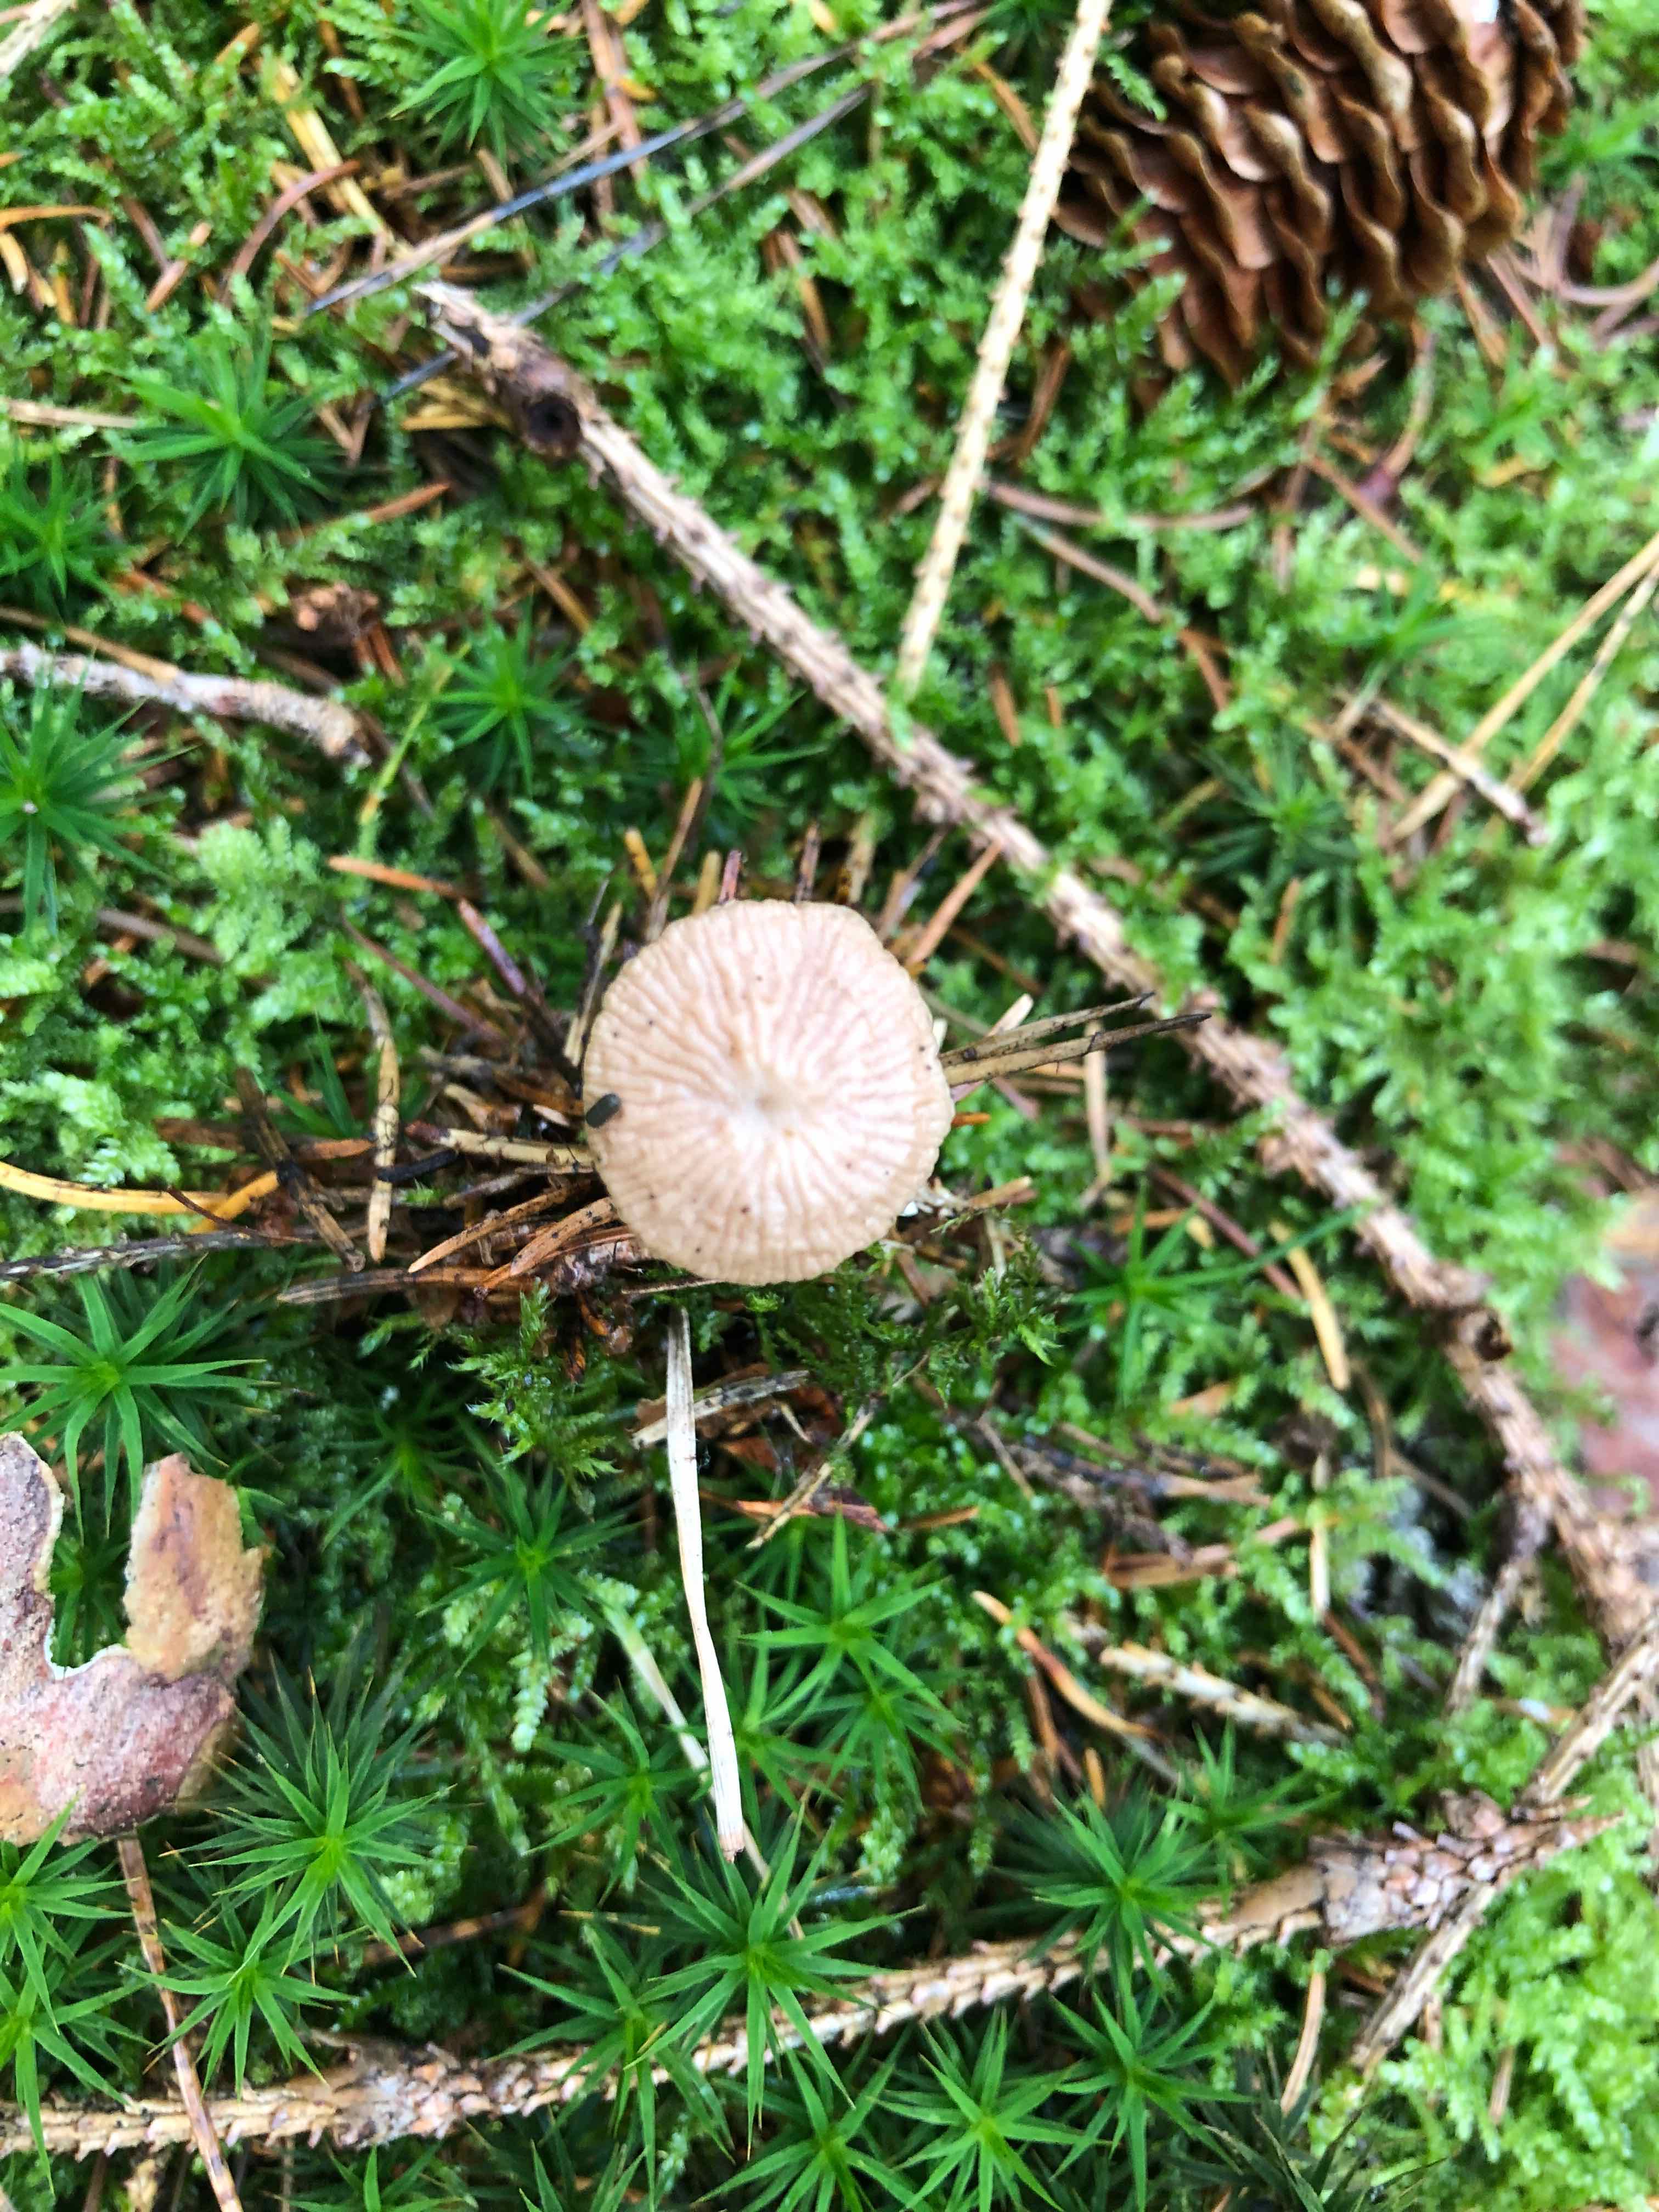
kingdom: Fungi
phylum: Basidiomycota
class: Agaricomycetes
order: Agaricales
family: Omphalotaceae
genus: Paragymnopus
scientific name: Paragymnopus perforans
